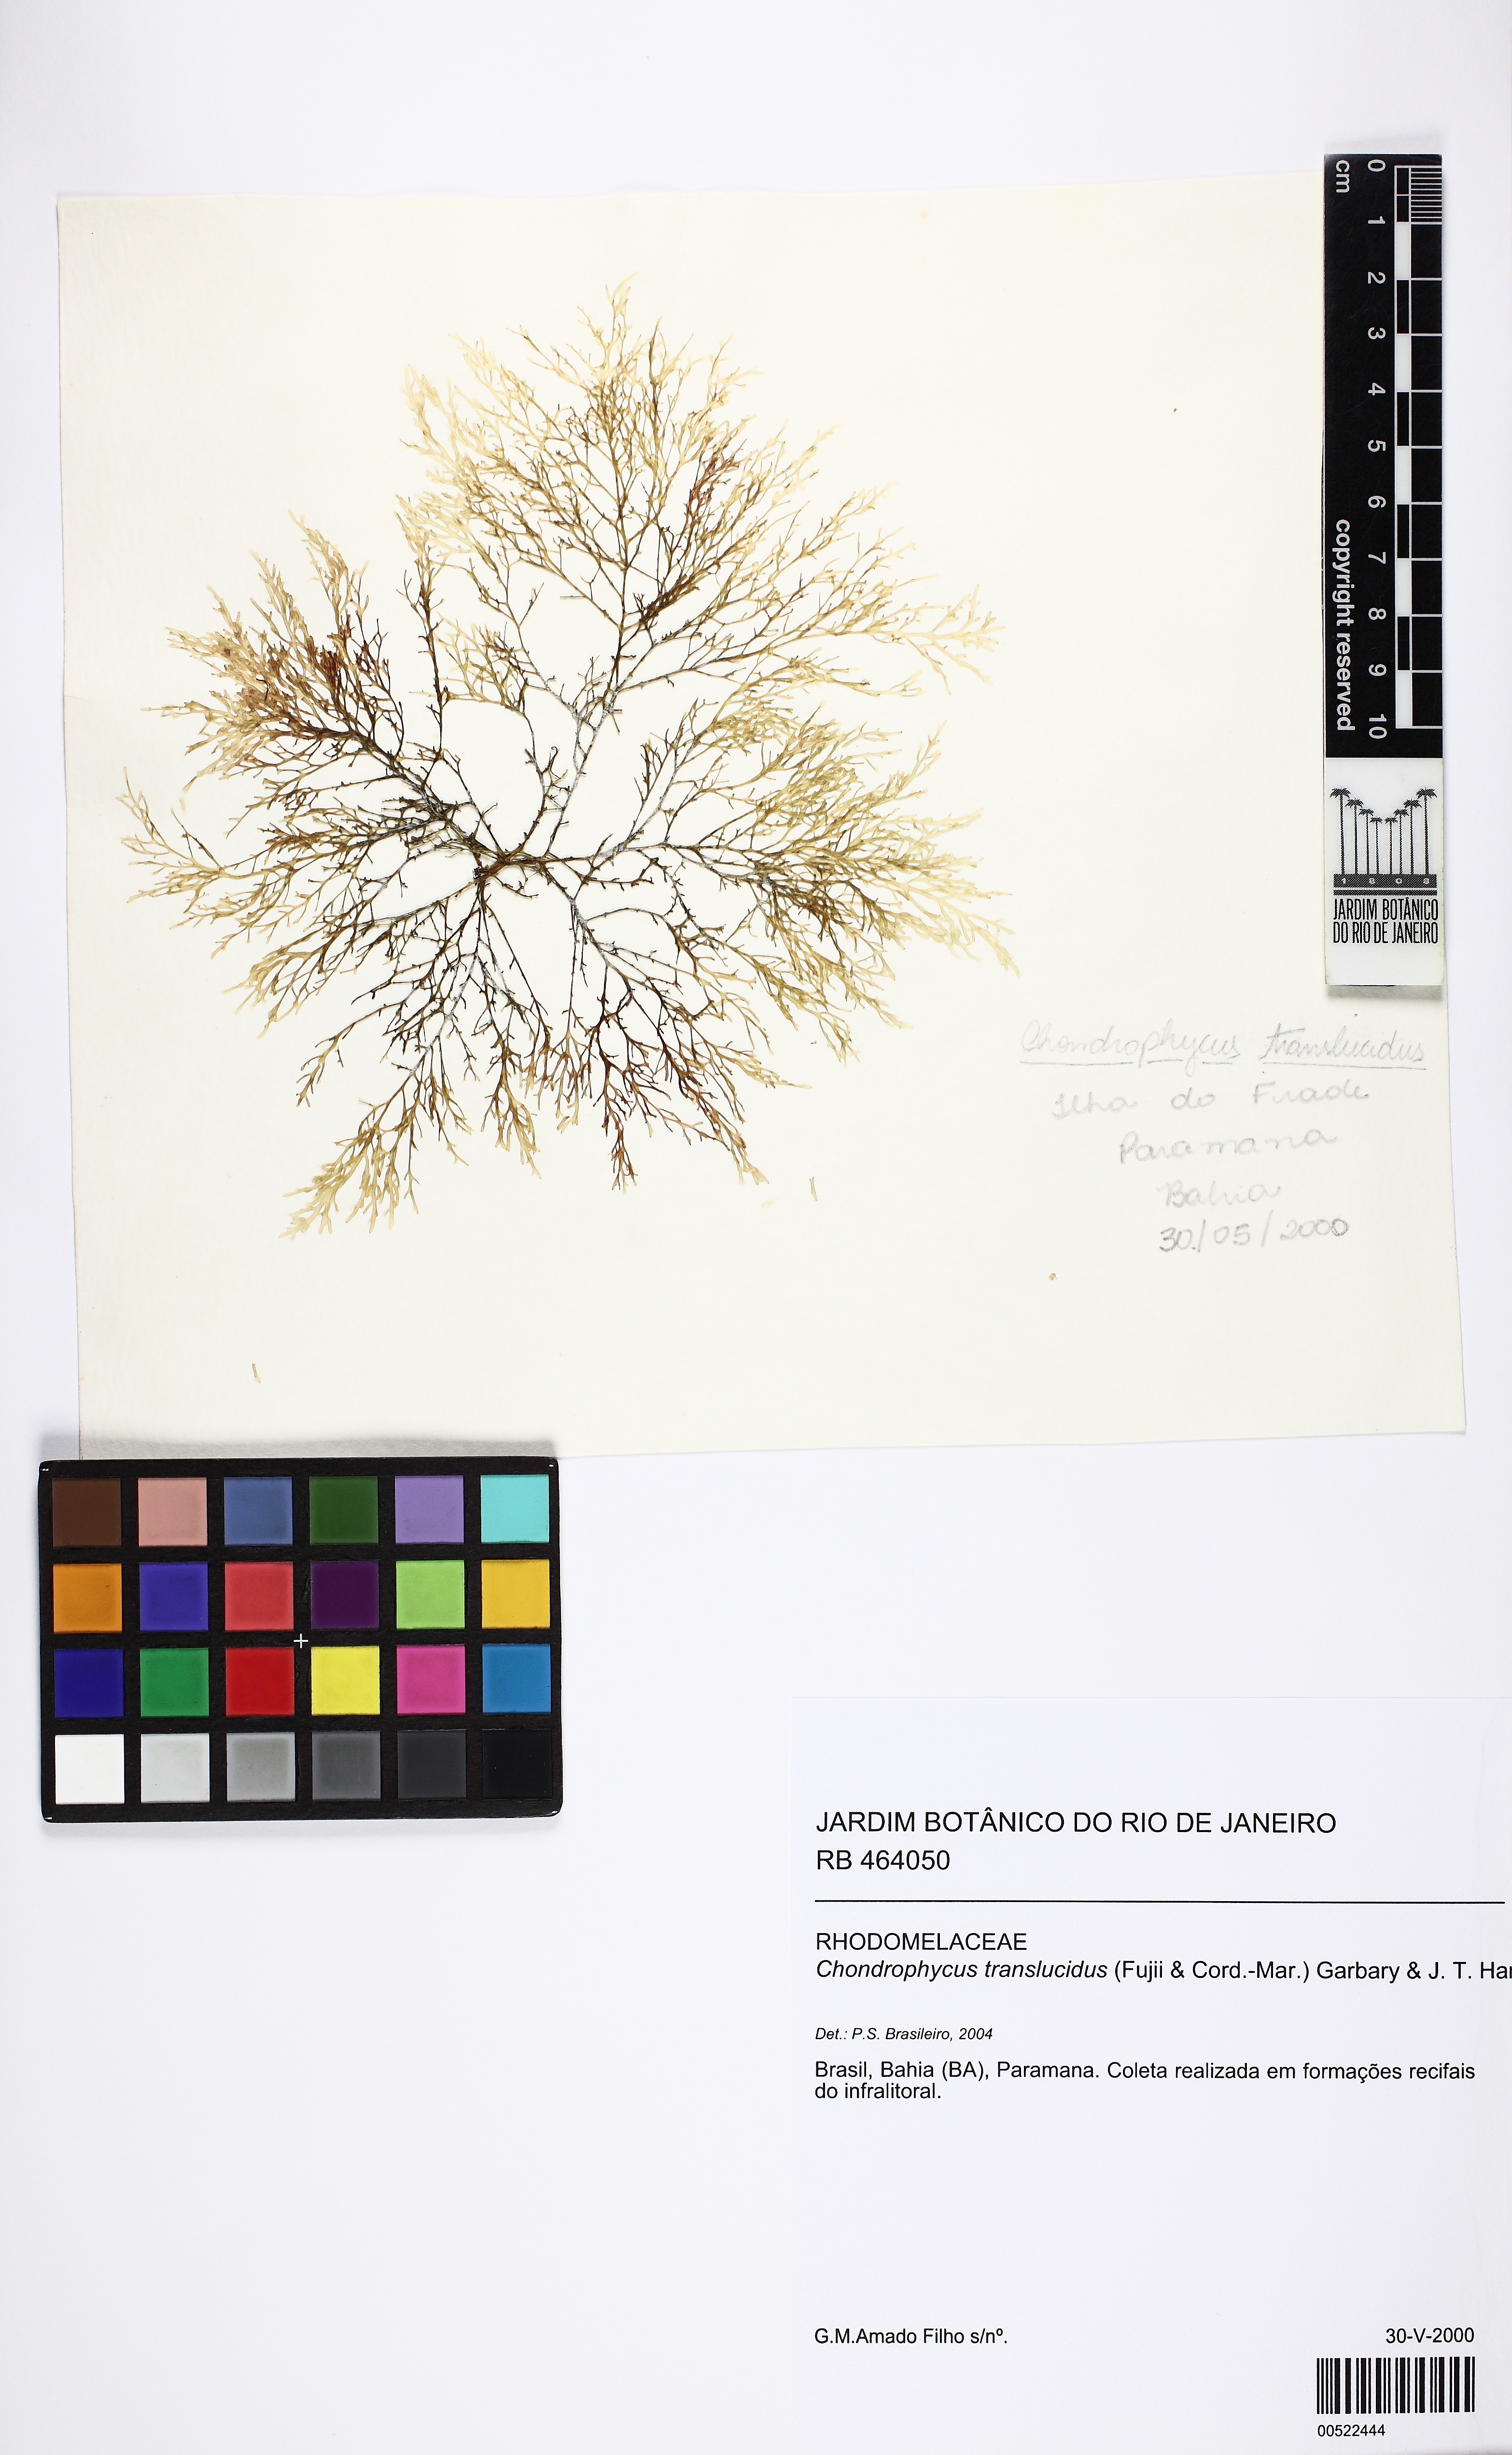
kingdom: Plantae
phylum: Rhodophyta
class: Florideophyceae
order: Ceramiales
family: Rhodomelaceae
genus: Laurencia
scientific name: Laurencia translucida
